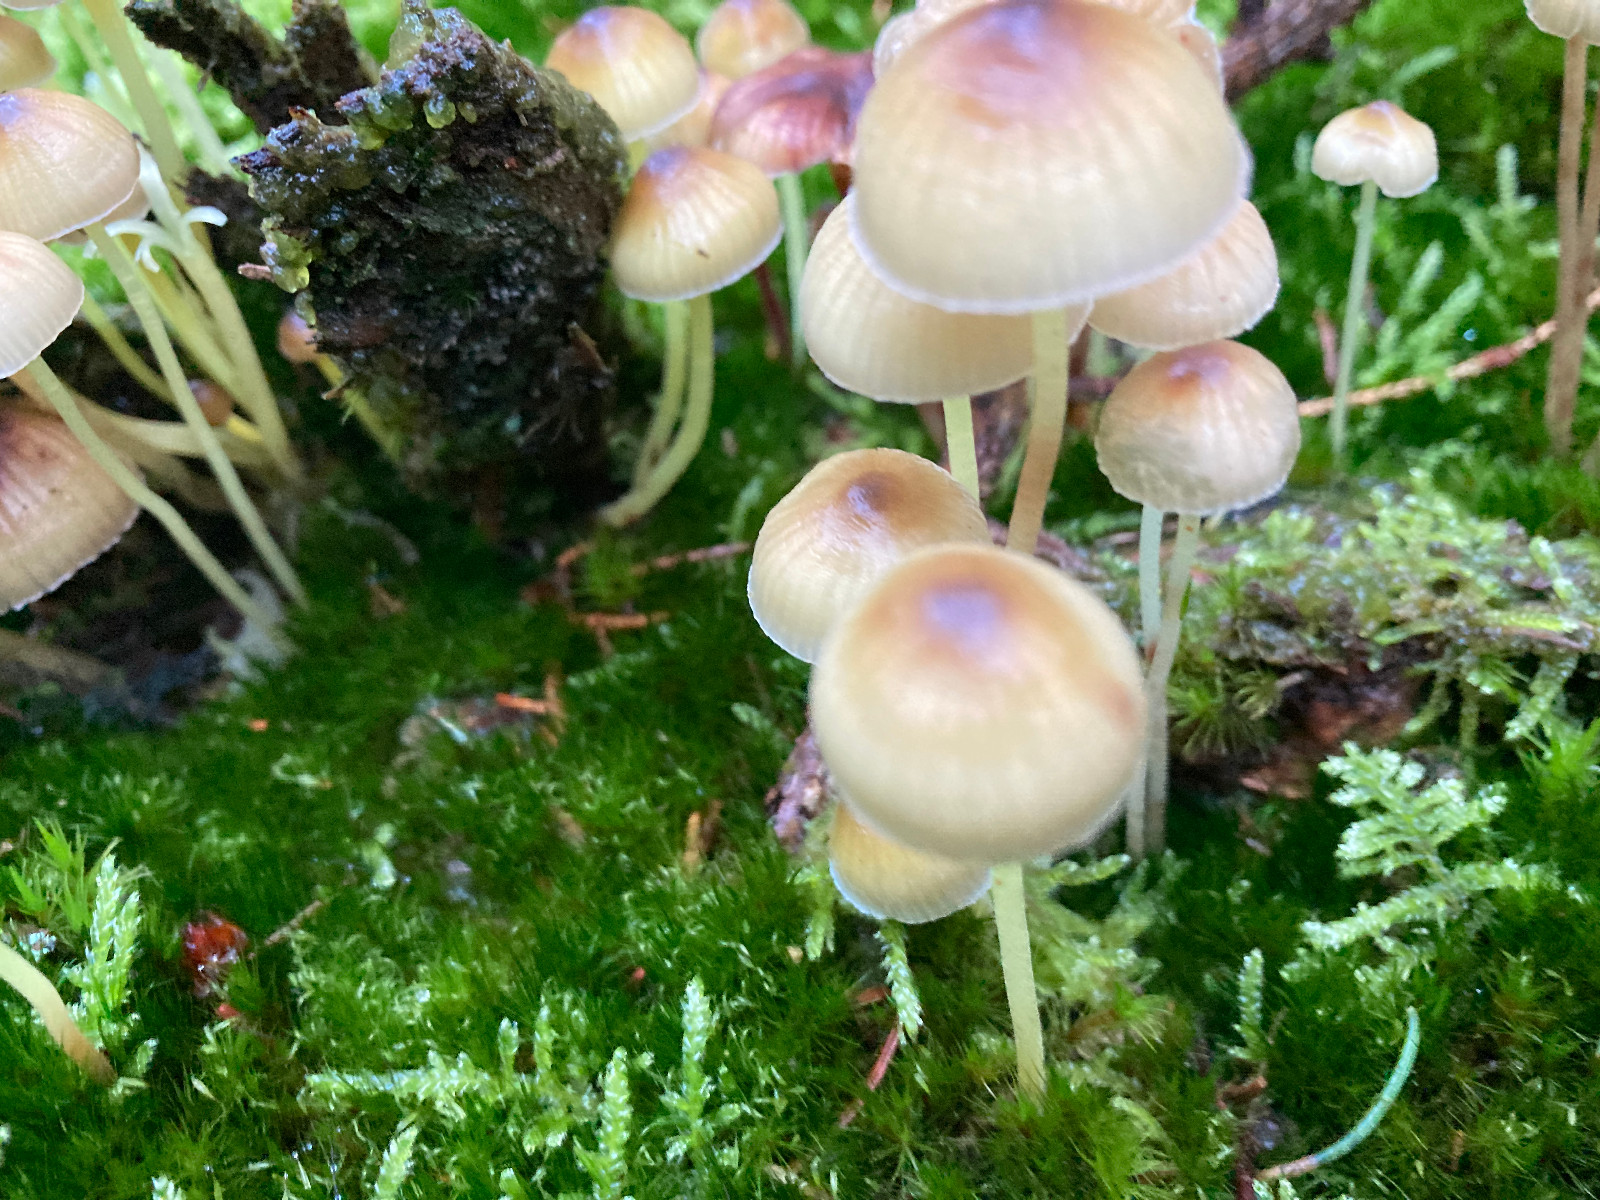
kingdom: Fungi
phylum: Basidiomycota
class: Agaricomycetes
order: Agaricales
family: Mycenaceae
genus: Mycena
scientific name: Mycena epipterygia
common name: gulstokket huesvamp
